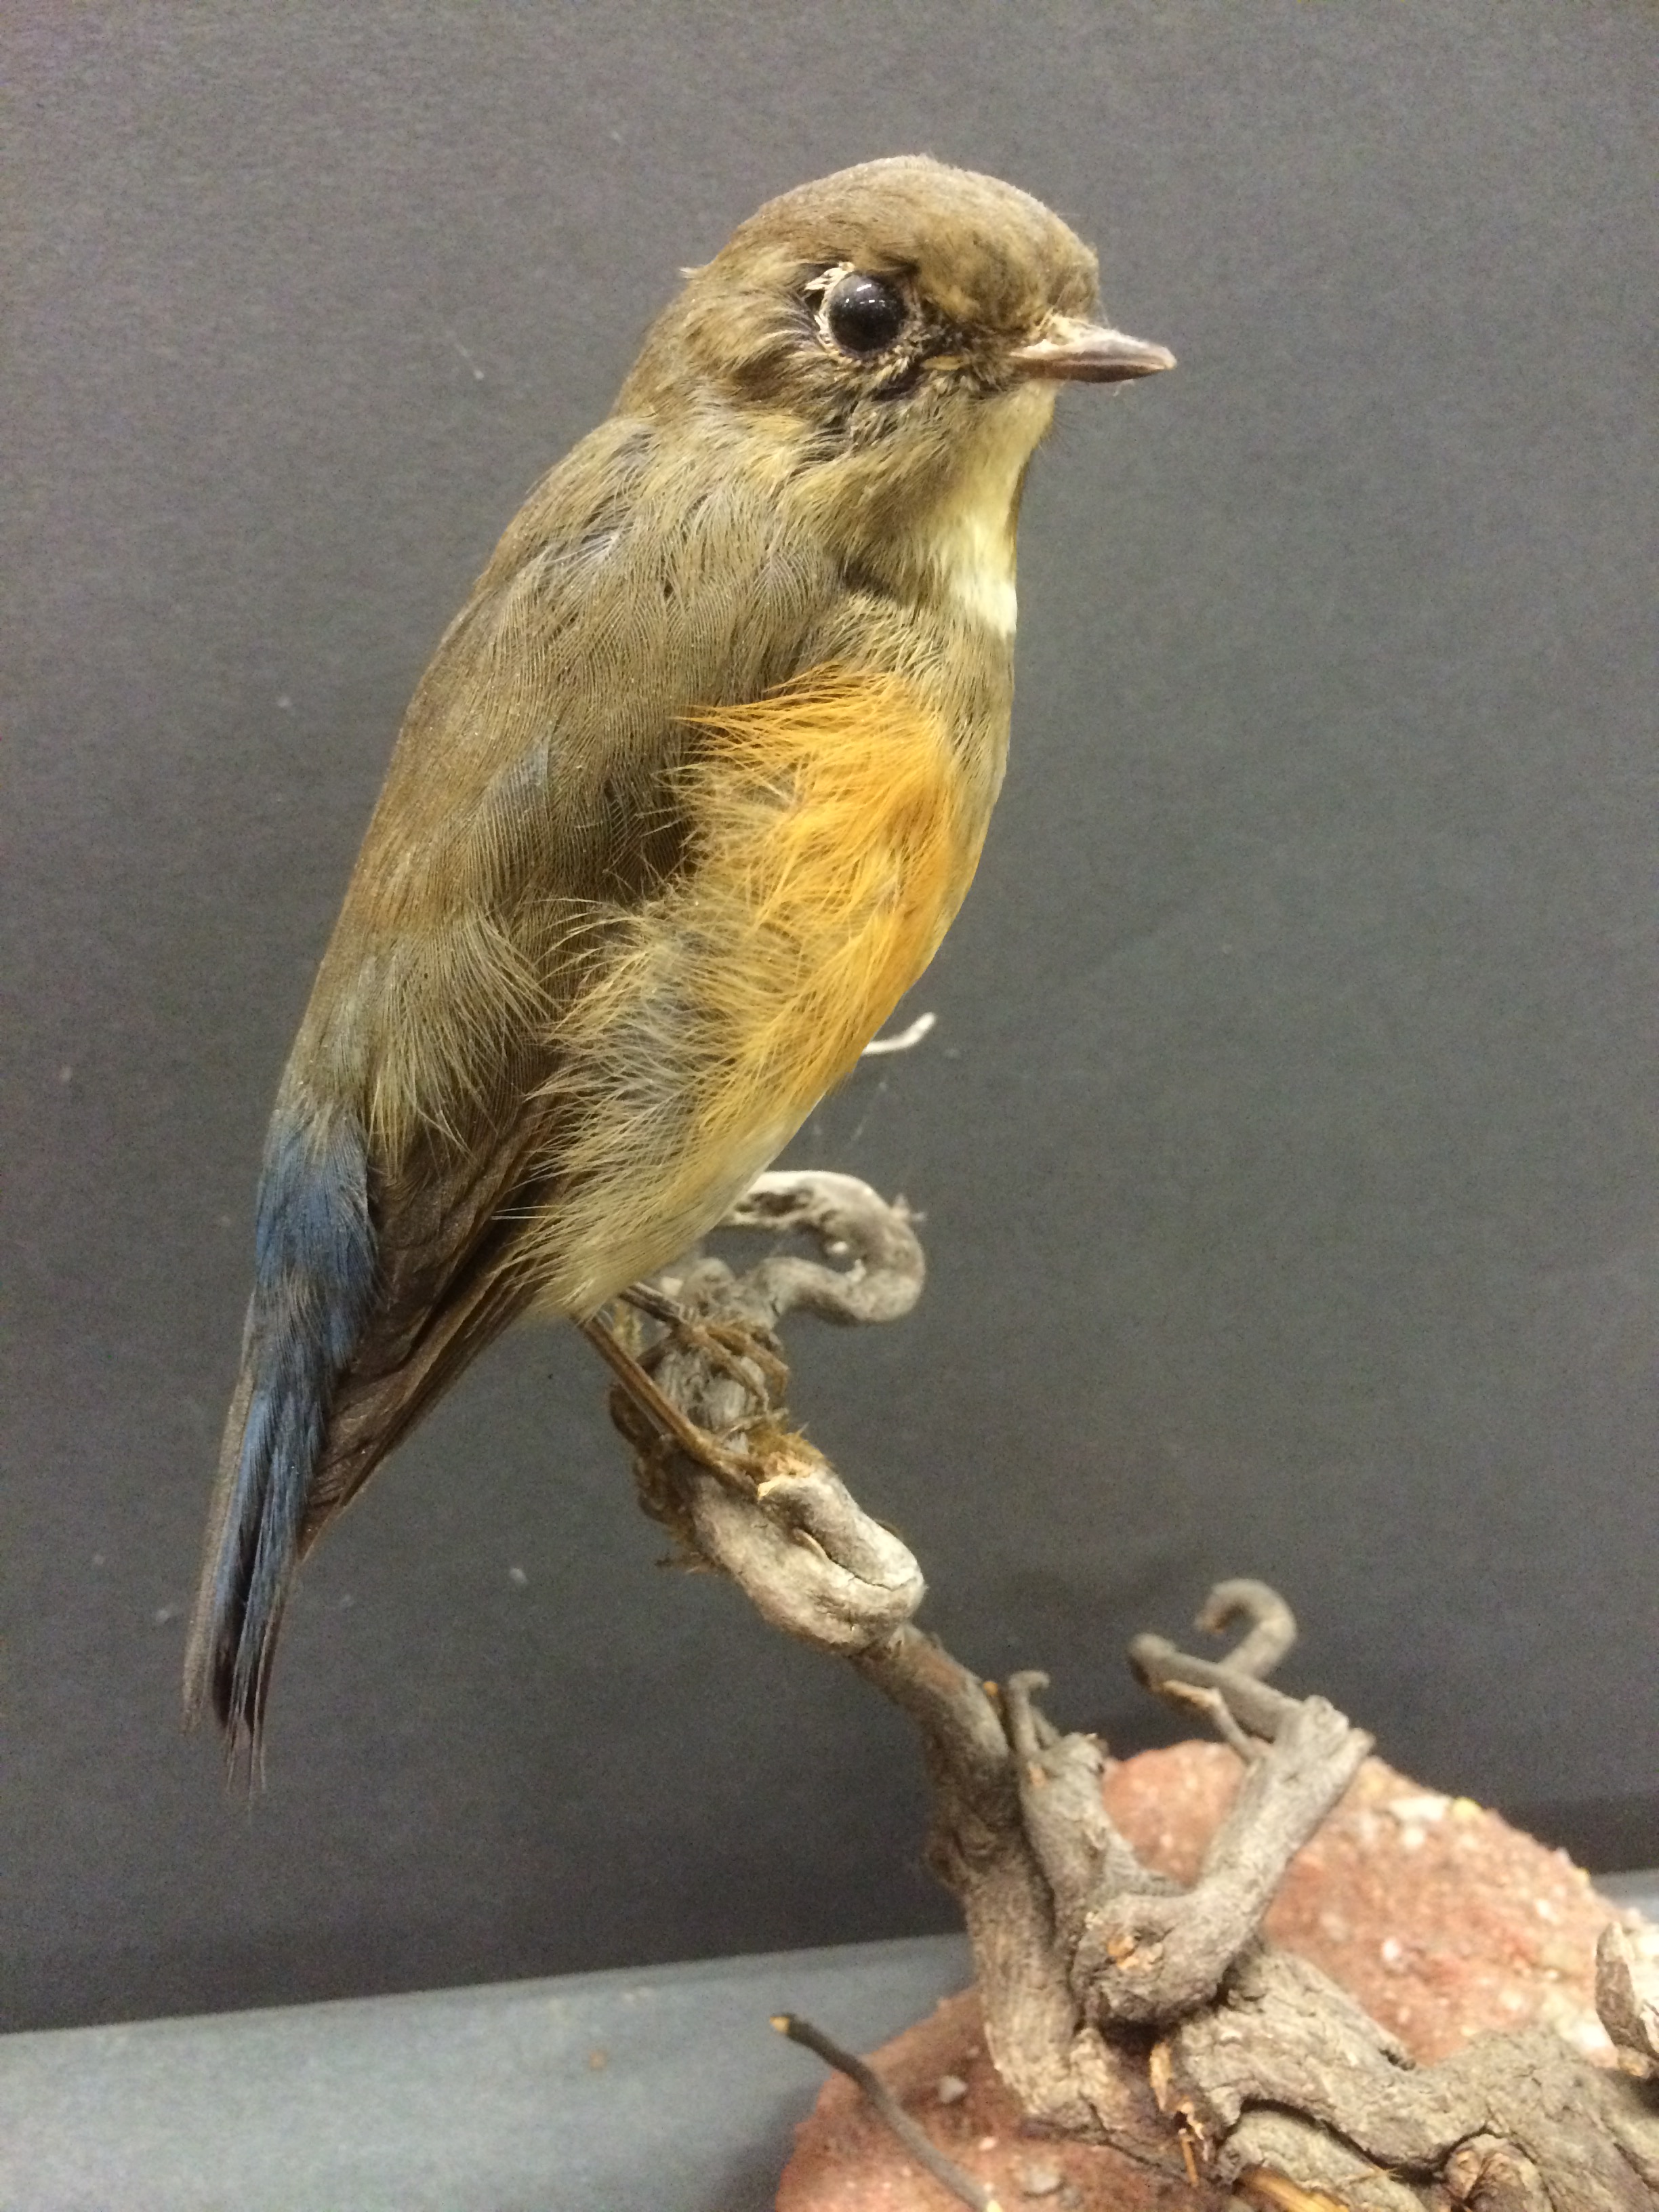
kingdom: Animalia
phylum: Chordata
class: Aves
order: Passeriformes
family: Muscicapidae
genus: Tarsiger
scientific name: Tarsiger cyanurus
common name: Red-flanked bluetail
